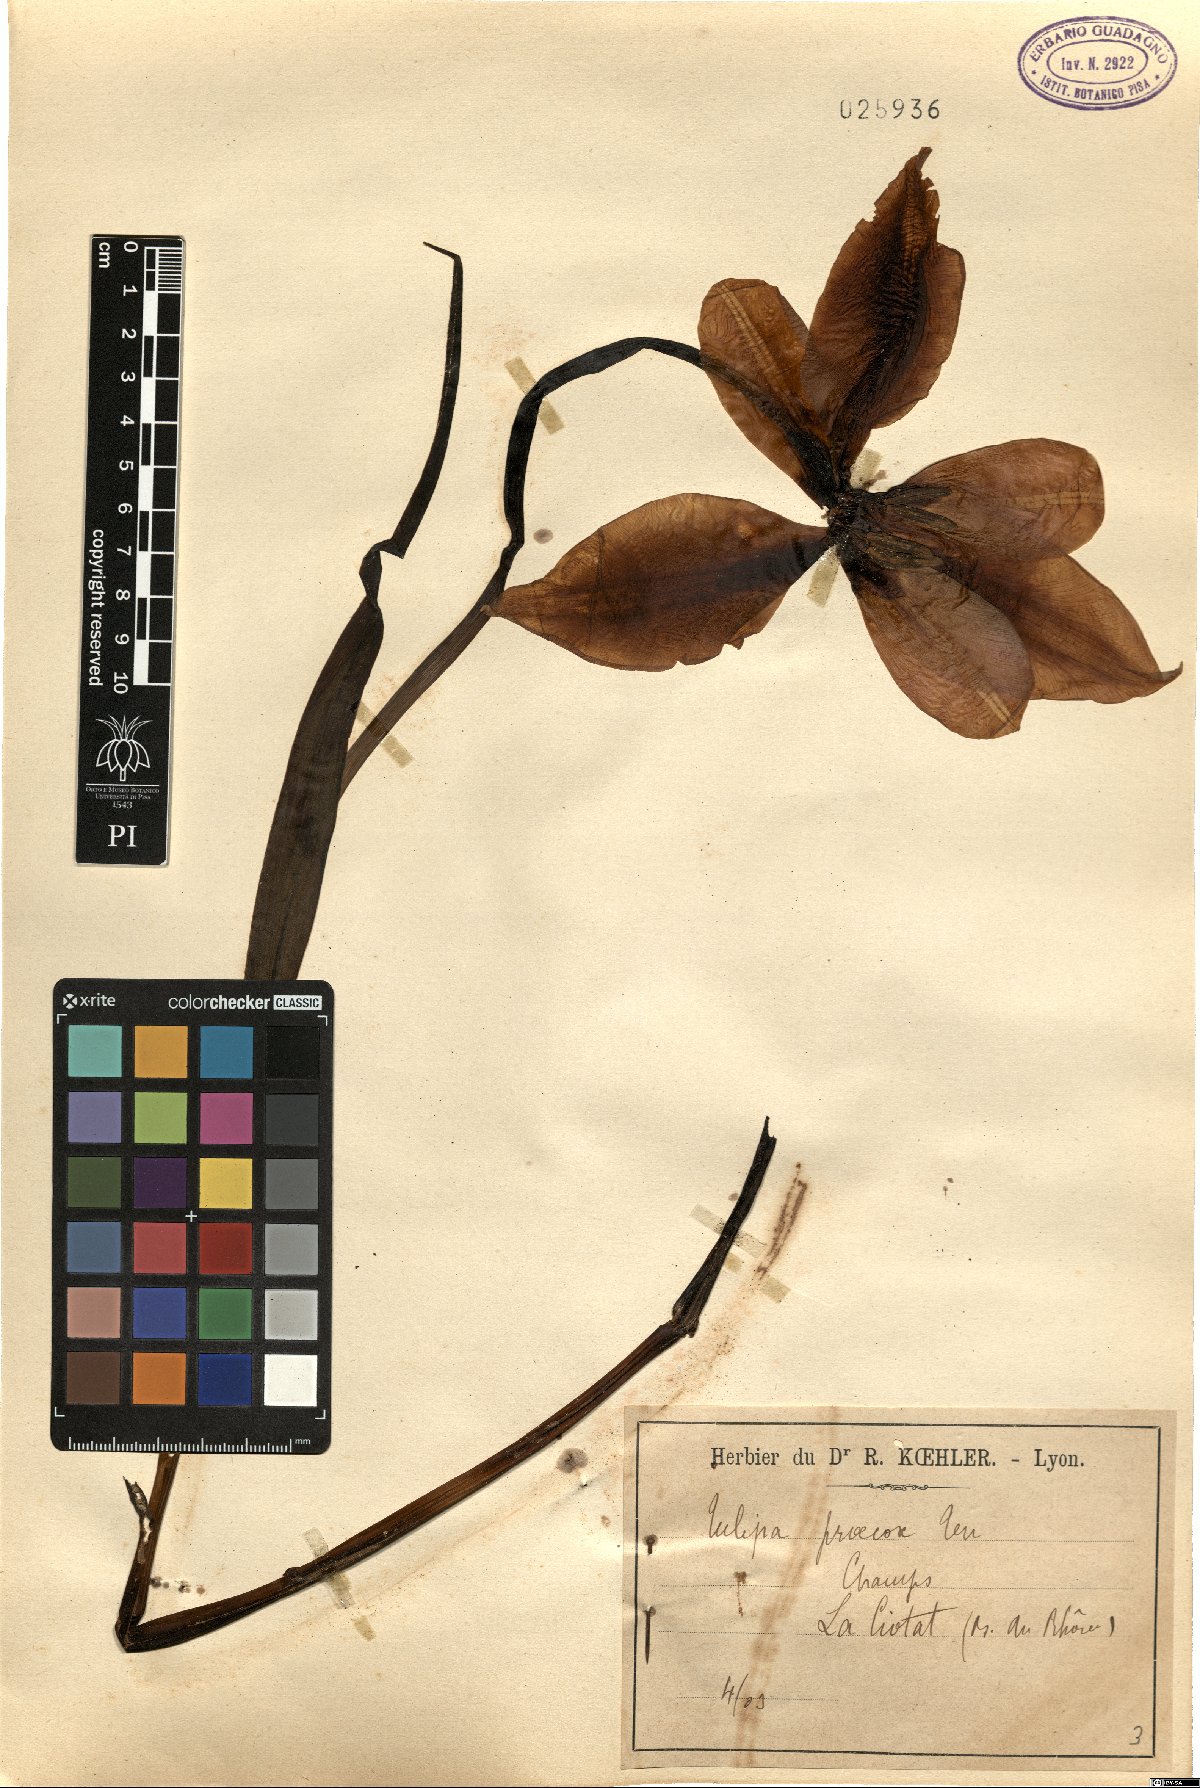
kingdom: Plantae
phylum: Tracheophyta
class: Liliopsida
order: Liliales
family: Liliaceae
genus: Tulipa
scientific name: Tulipa agenensis
